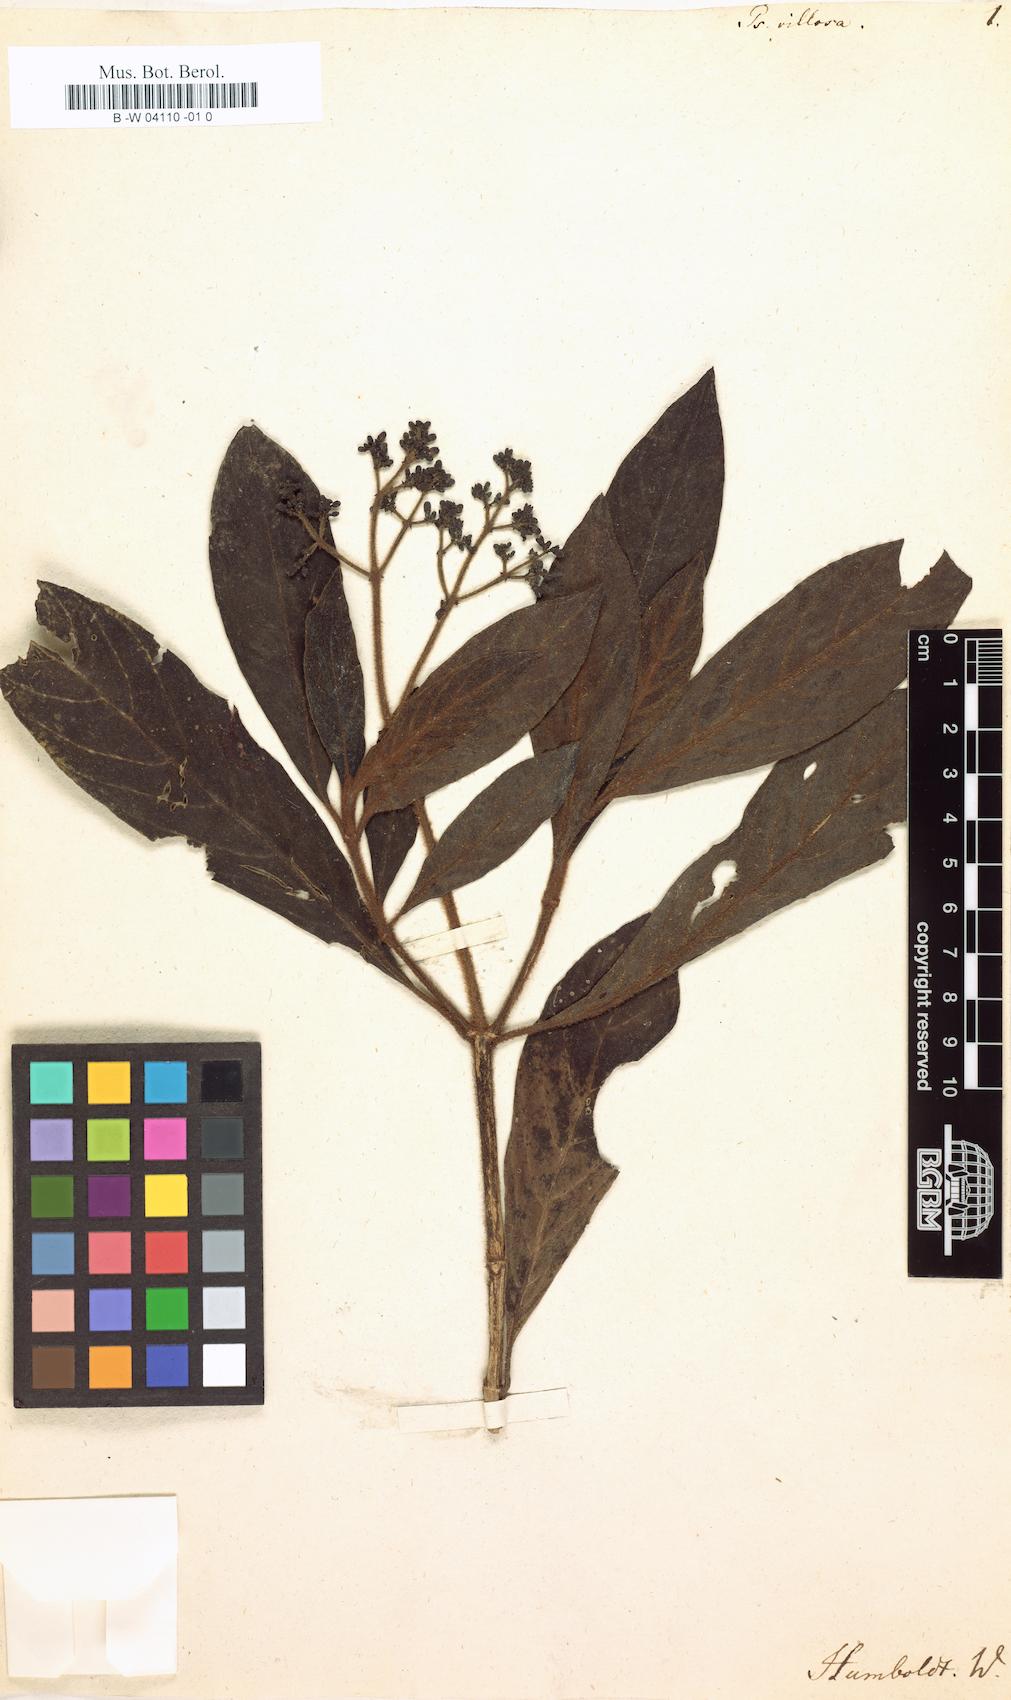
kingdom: Plantae
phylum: Tracheophyta
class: Magnoliopsida
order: Gentianales
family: Rubiaceae
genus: Psychotria
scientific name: Psychotria villosa
